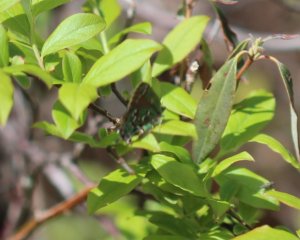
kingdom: Animalia
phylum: Arthropoda
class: Insecta
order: Lepidoptera
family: Lycaenidae
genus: Mitoura
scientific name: Mitoura hesseli
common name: Hessel's Hairstreak
